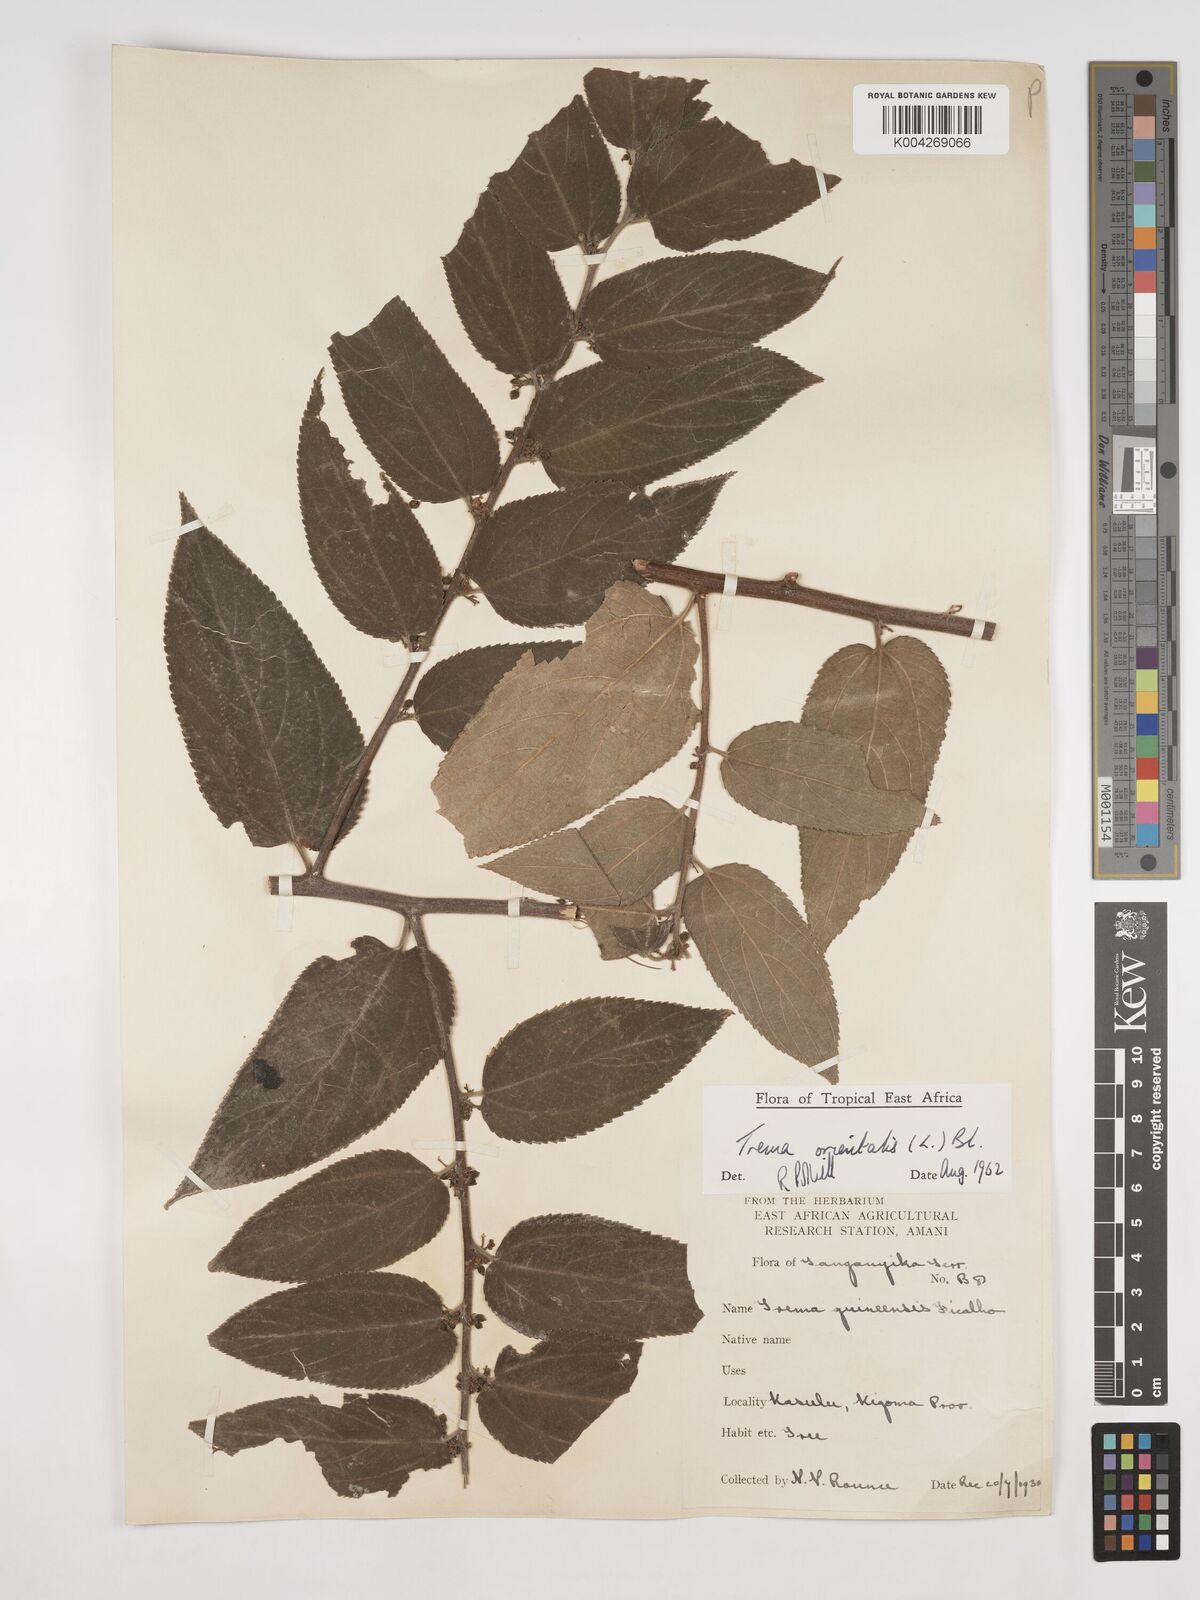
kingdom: Plantae
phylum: Tracheophyta
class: Magnoliopsida
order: Rosales
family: Cannabaceae
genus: Trema
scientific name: Trema orientale
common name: Indian charcoal tree
